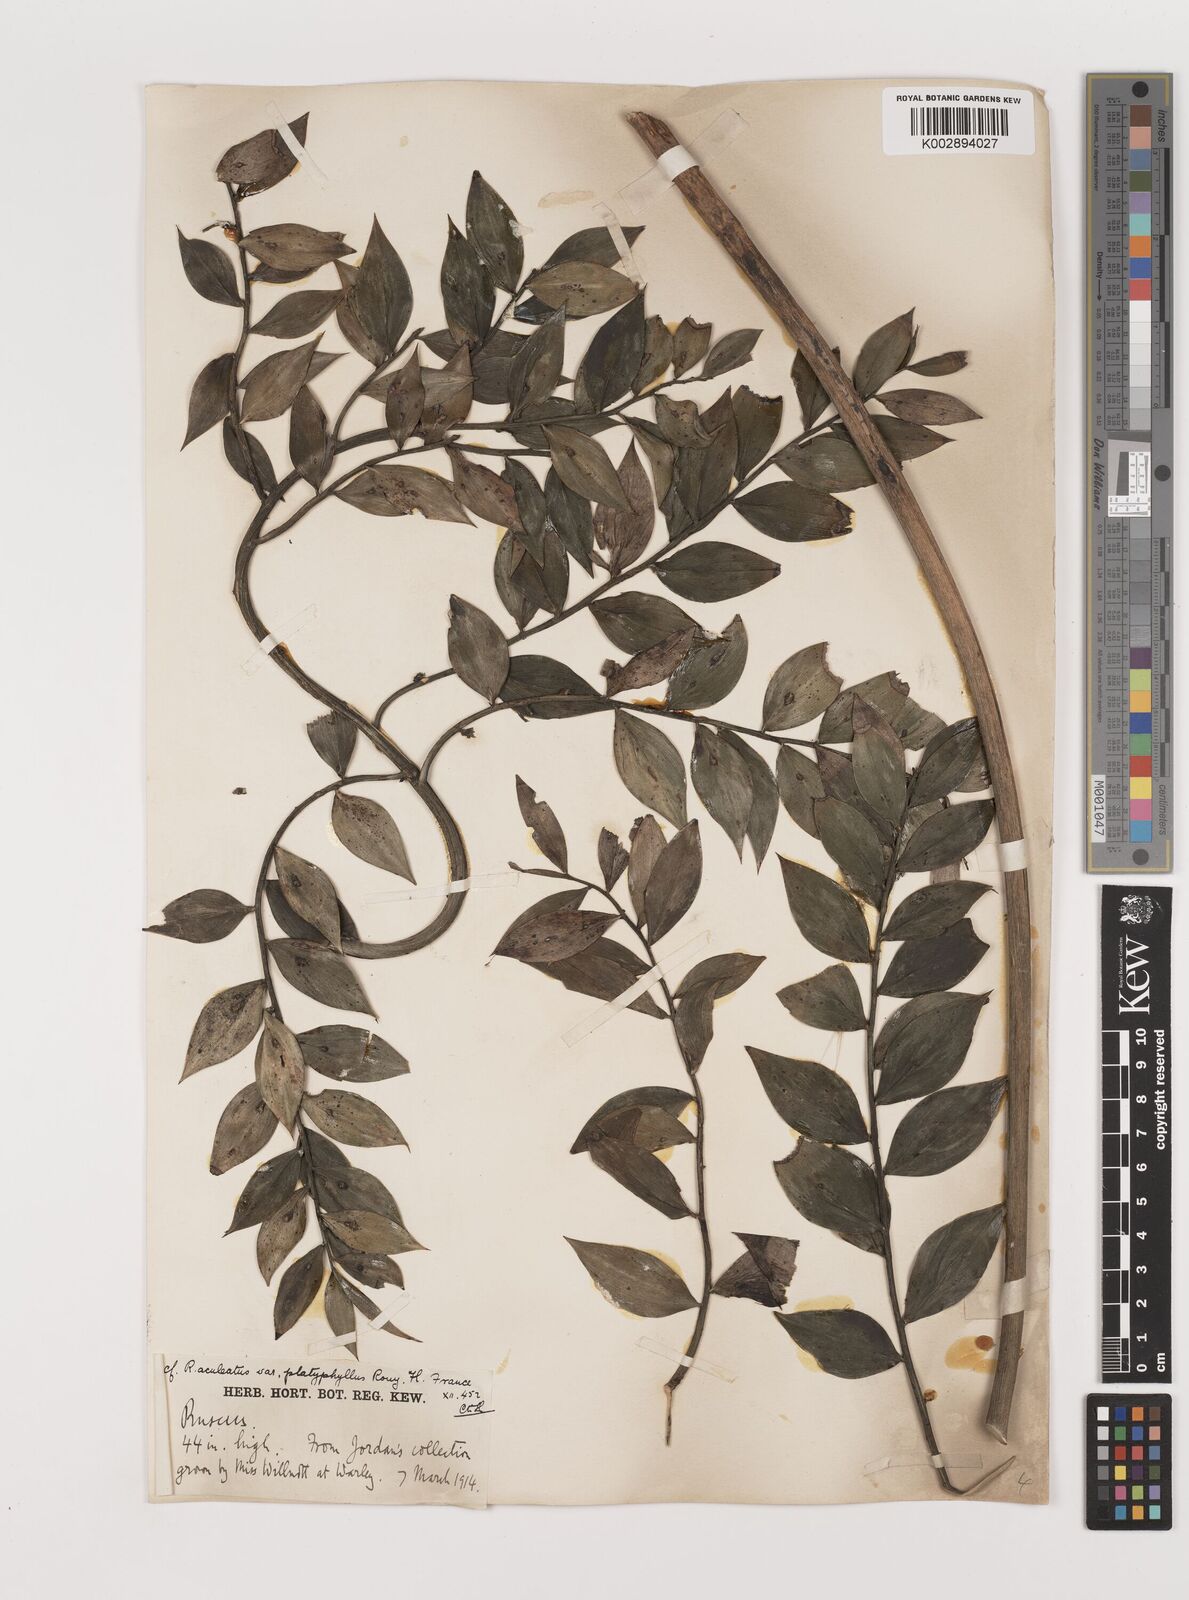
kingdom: Plantae
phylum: Tracheophyta
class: Liliopsida
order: Asparagales
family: Asparagaceae
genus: Ruscus
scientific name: Ruscus aculeatus
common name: Butcher's-broom
